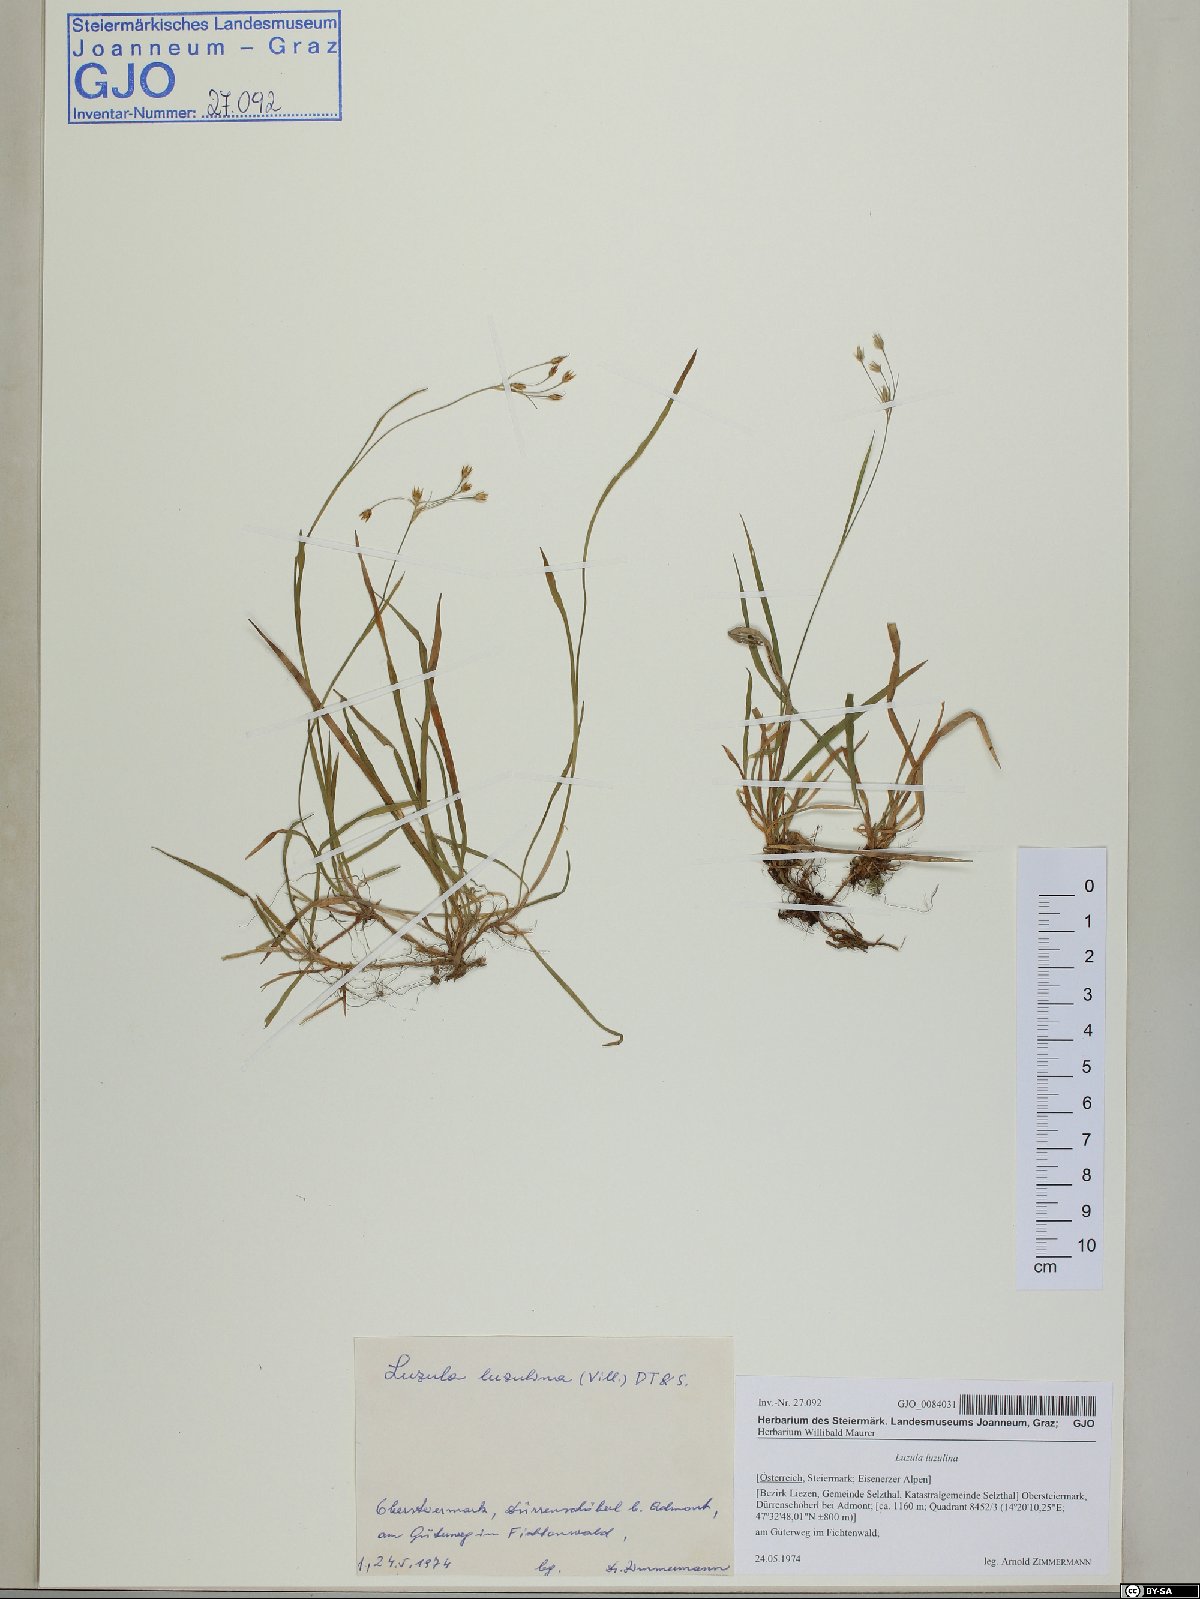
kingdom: Plantae
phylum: Tracheophyta
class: Liliopsida
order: Poales
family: Juncaceae
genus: Luzula
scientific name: Luzula luzulina
